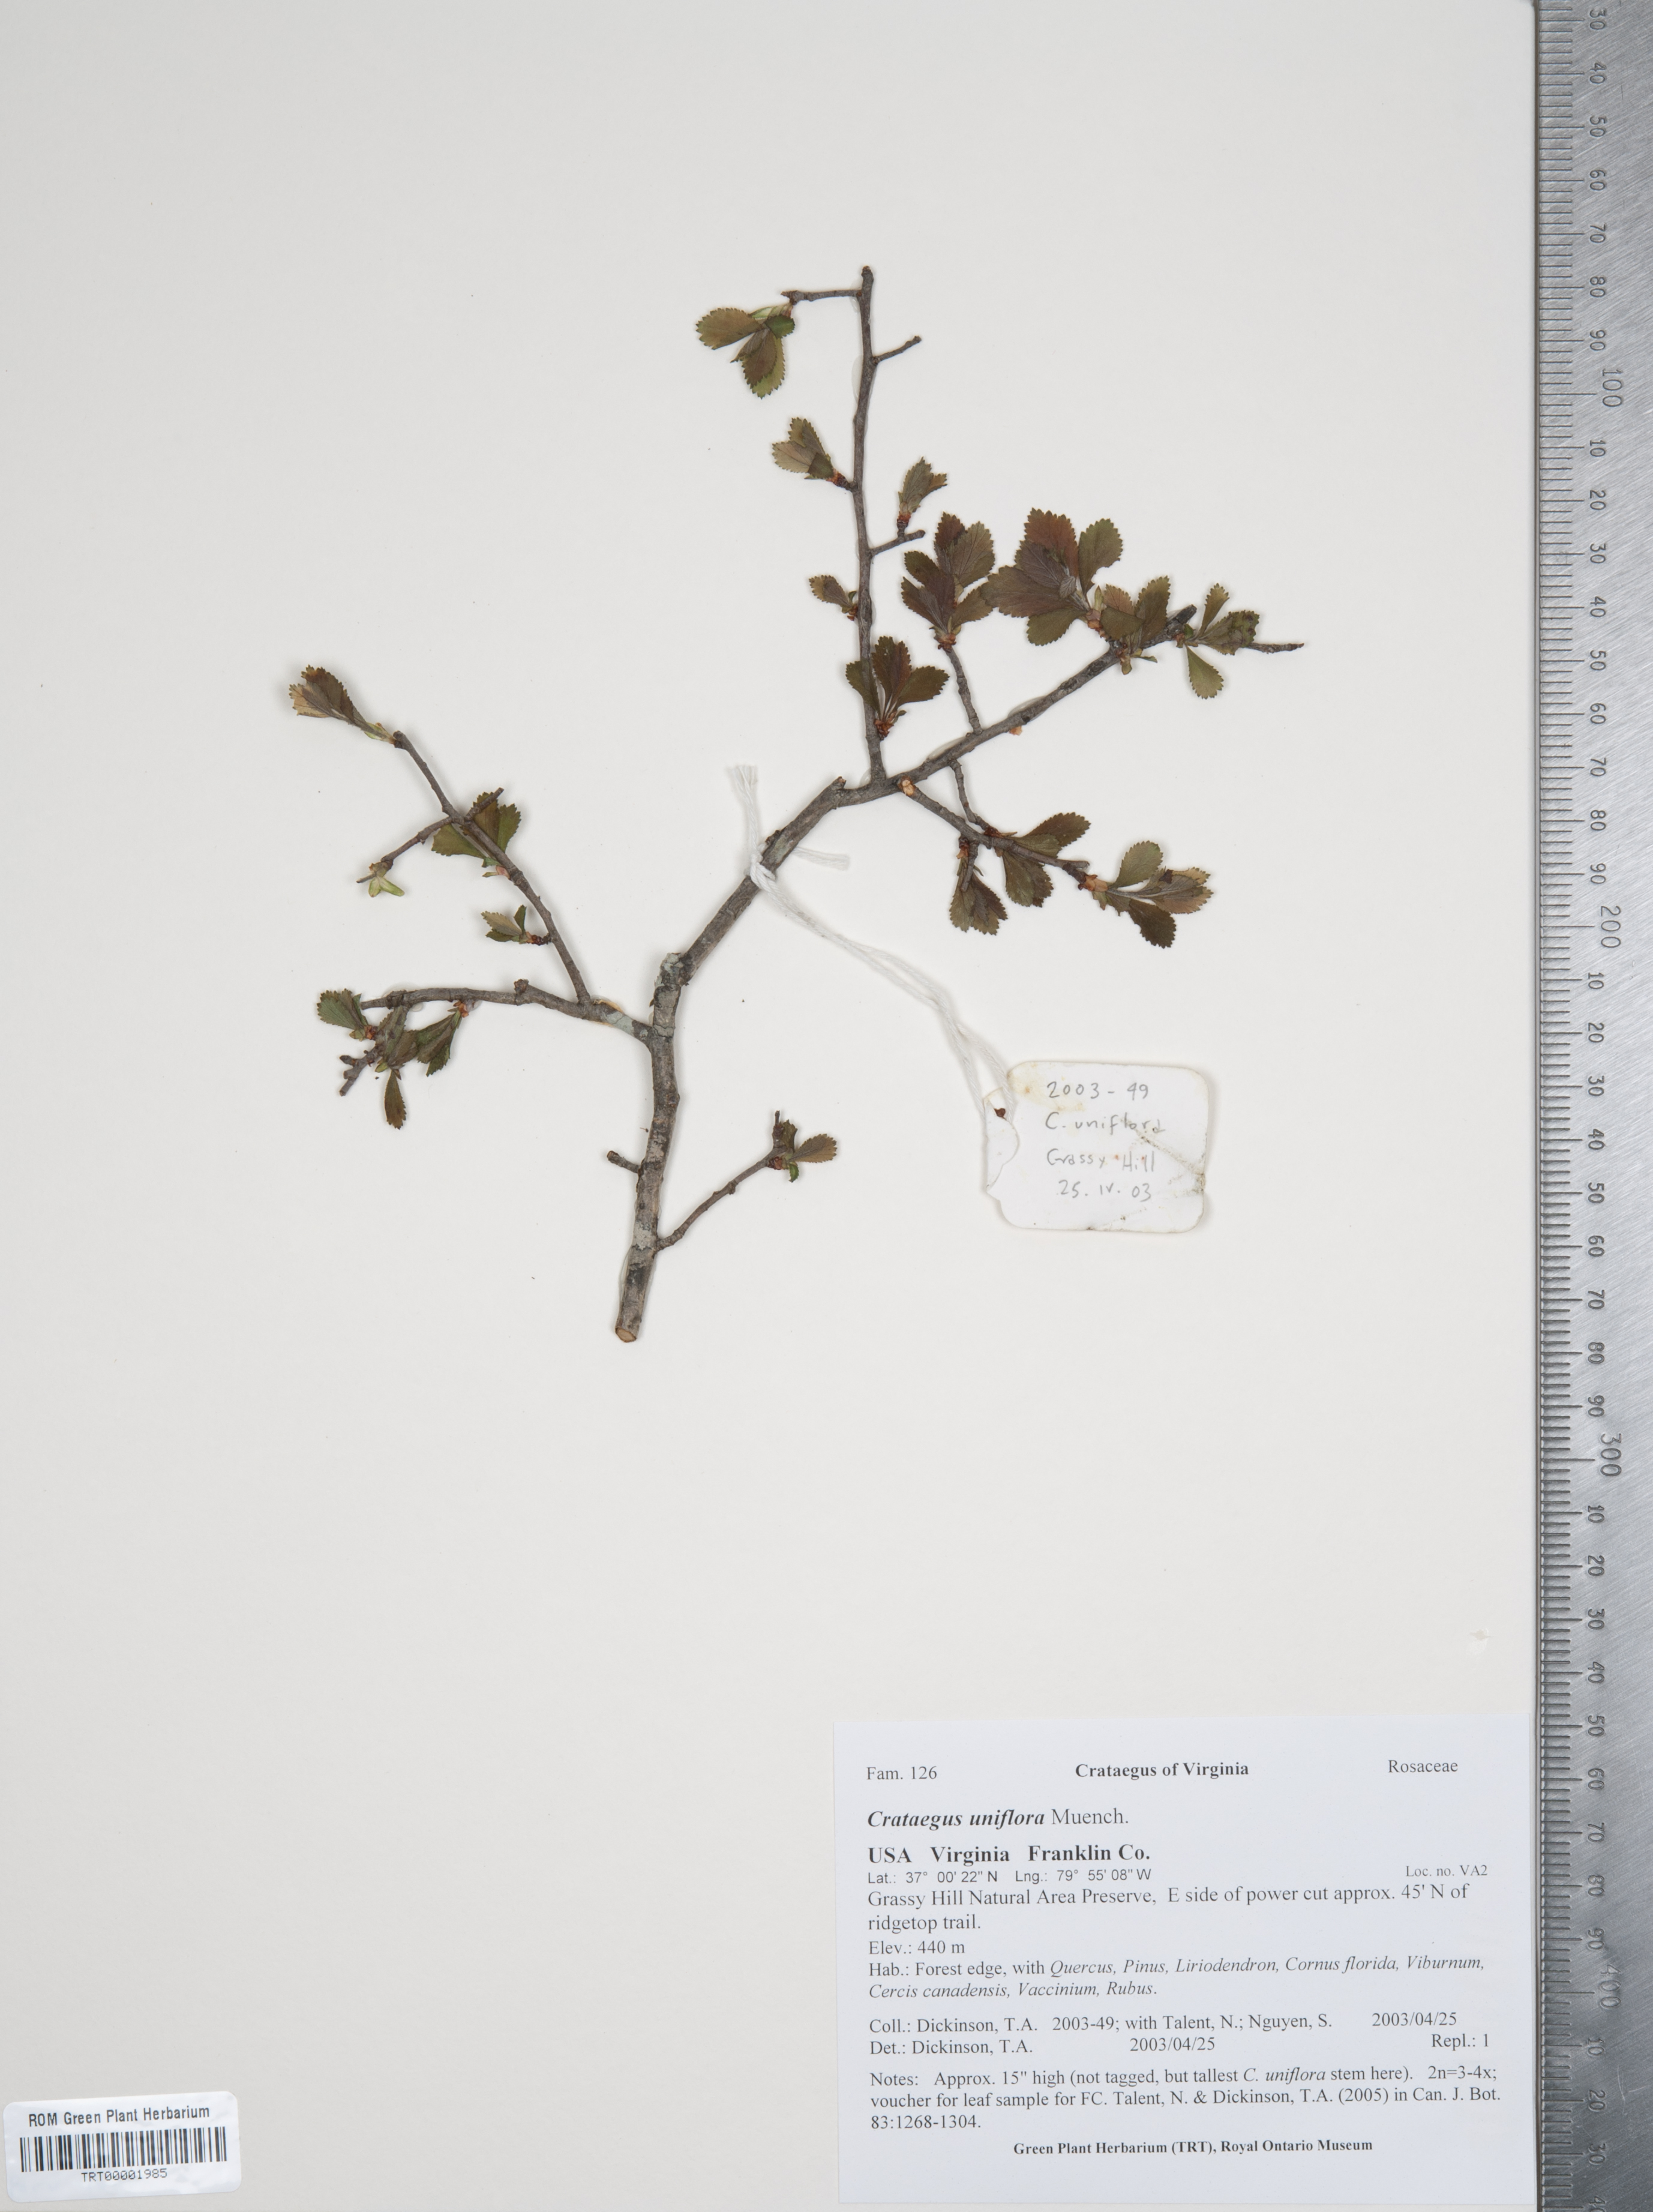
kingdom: Plantae
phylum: Tracheophyta
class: Magnoliopsida
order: Rosales
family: Rosaceae
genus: Crataegus
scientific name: Crataegus uniflora
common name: One-flower hawthorn
